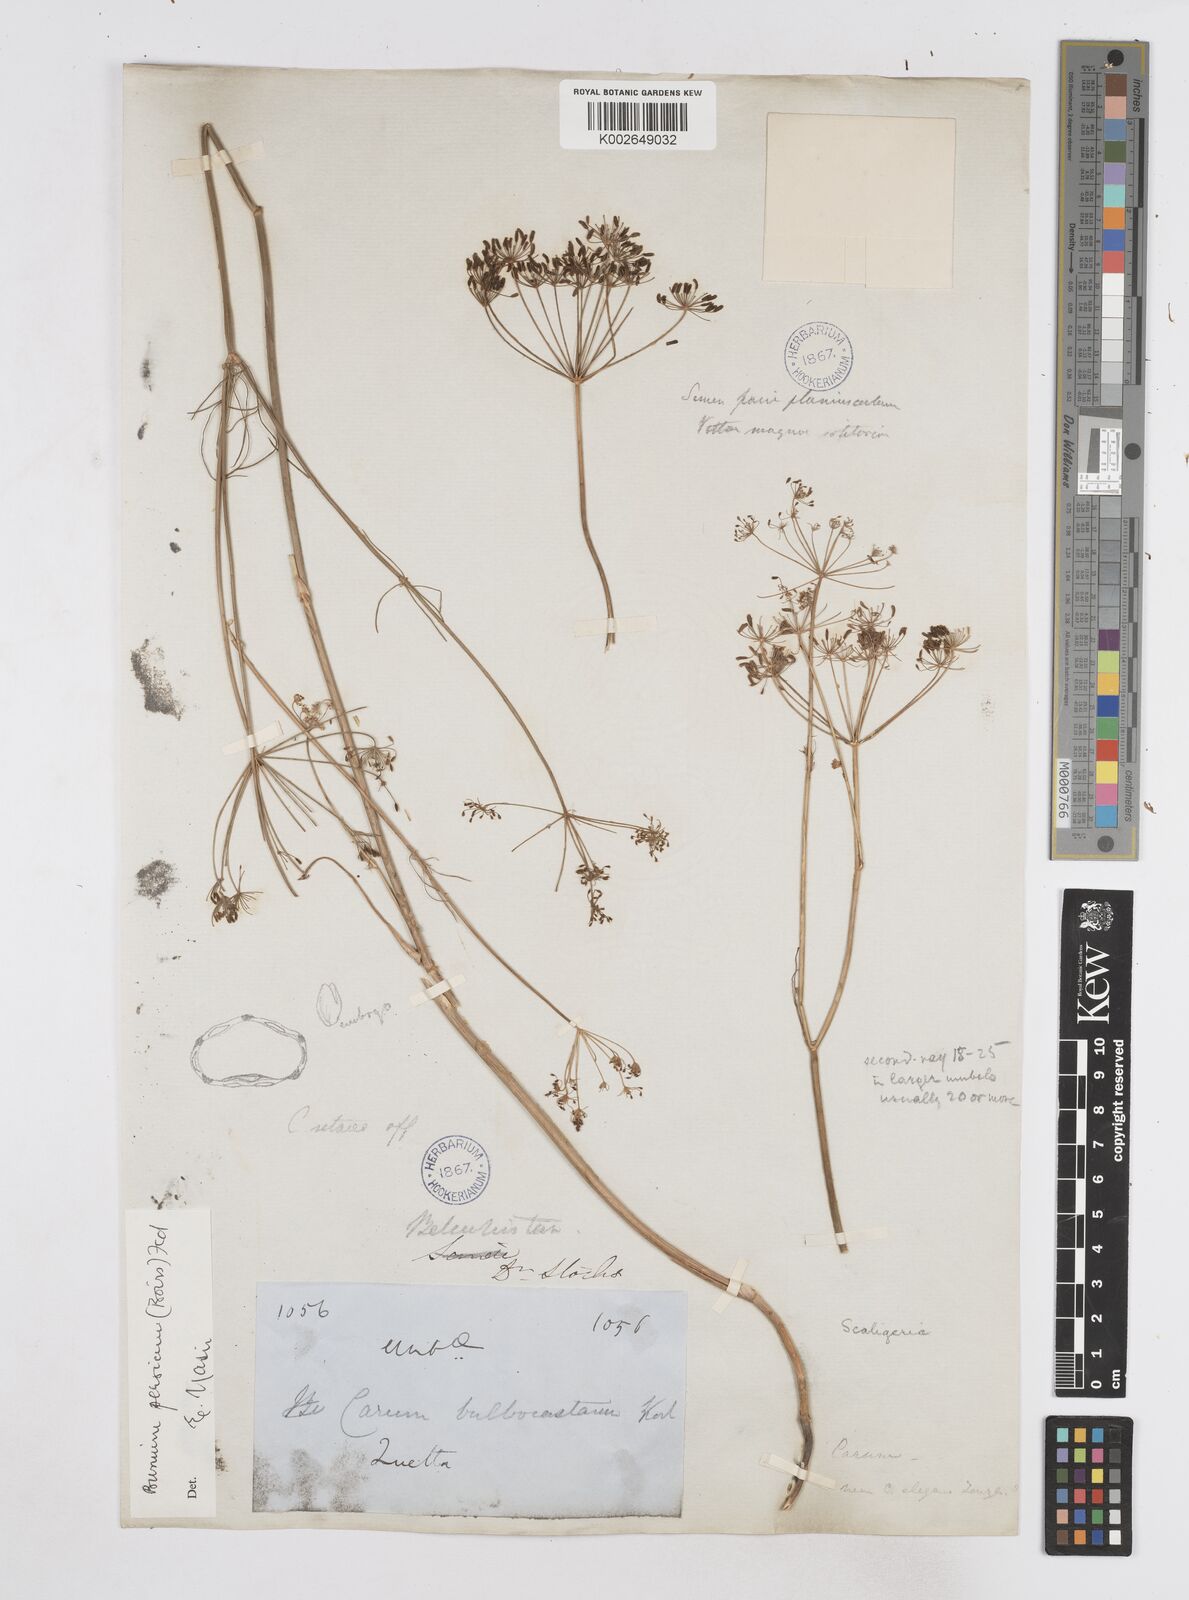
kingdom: Plantae
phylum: Tracheophyta
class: Magnoliopsida
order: Apiales
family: Apiaceae
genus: Bunium
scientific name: Bunium
